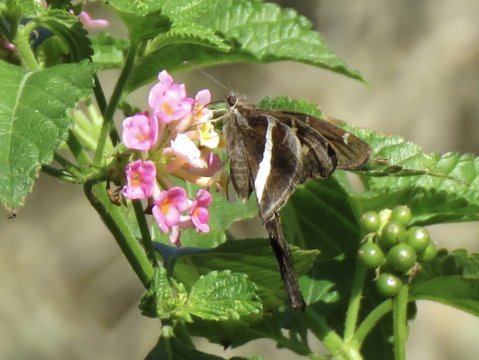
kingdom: Animalia
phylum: Arthropoda
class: Insecta
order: Lepidoptera
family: Hesperiidae
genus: Chioides
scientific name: Chioides catillus
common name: White-striped Longtail
